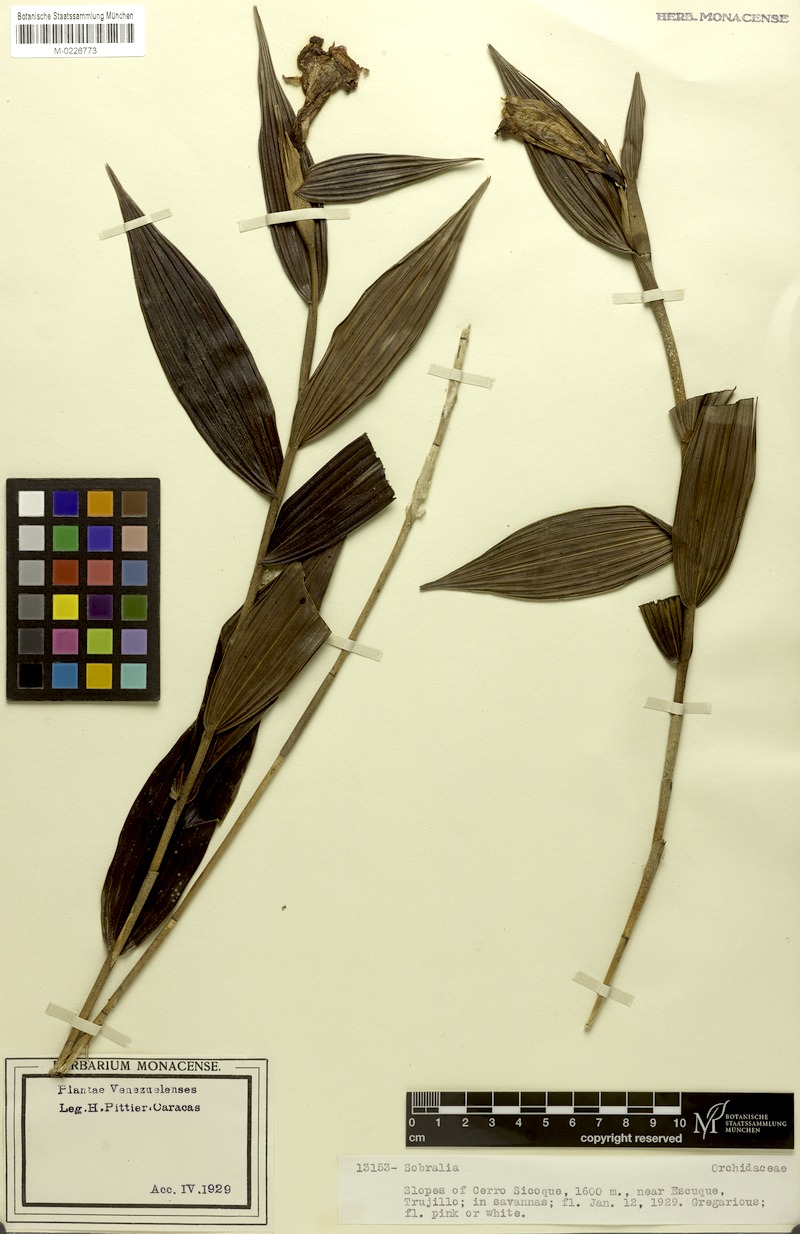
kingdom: Plantae
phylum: Tracheophyta
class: Liliopsida
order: Asparagales
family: Orchidaceae
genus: Sobralia
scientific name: Sobralia
